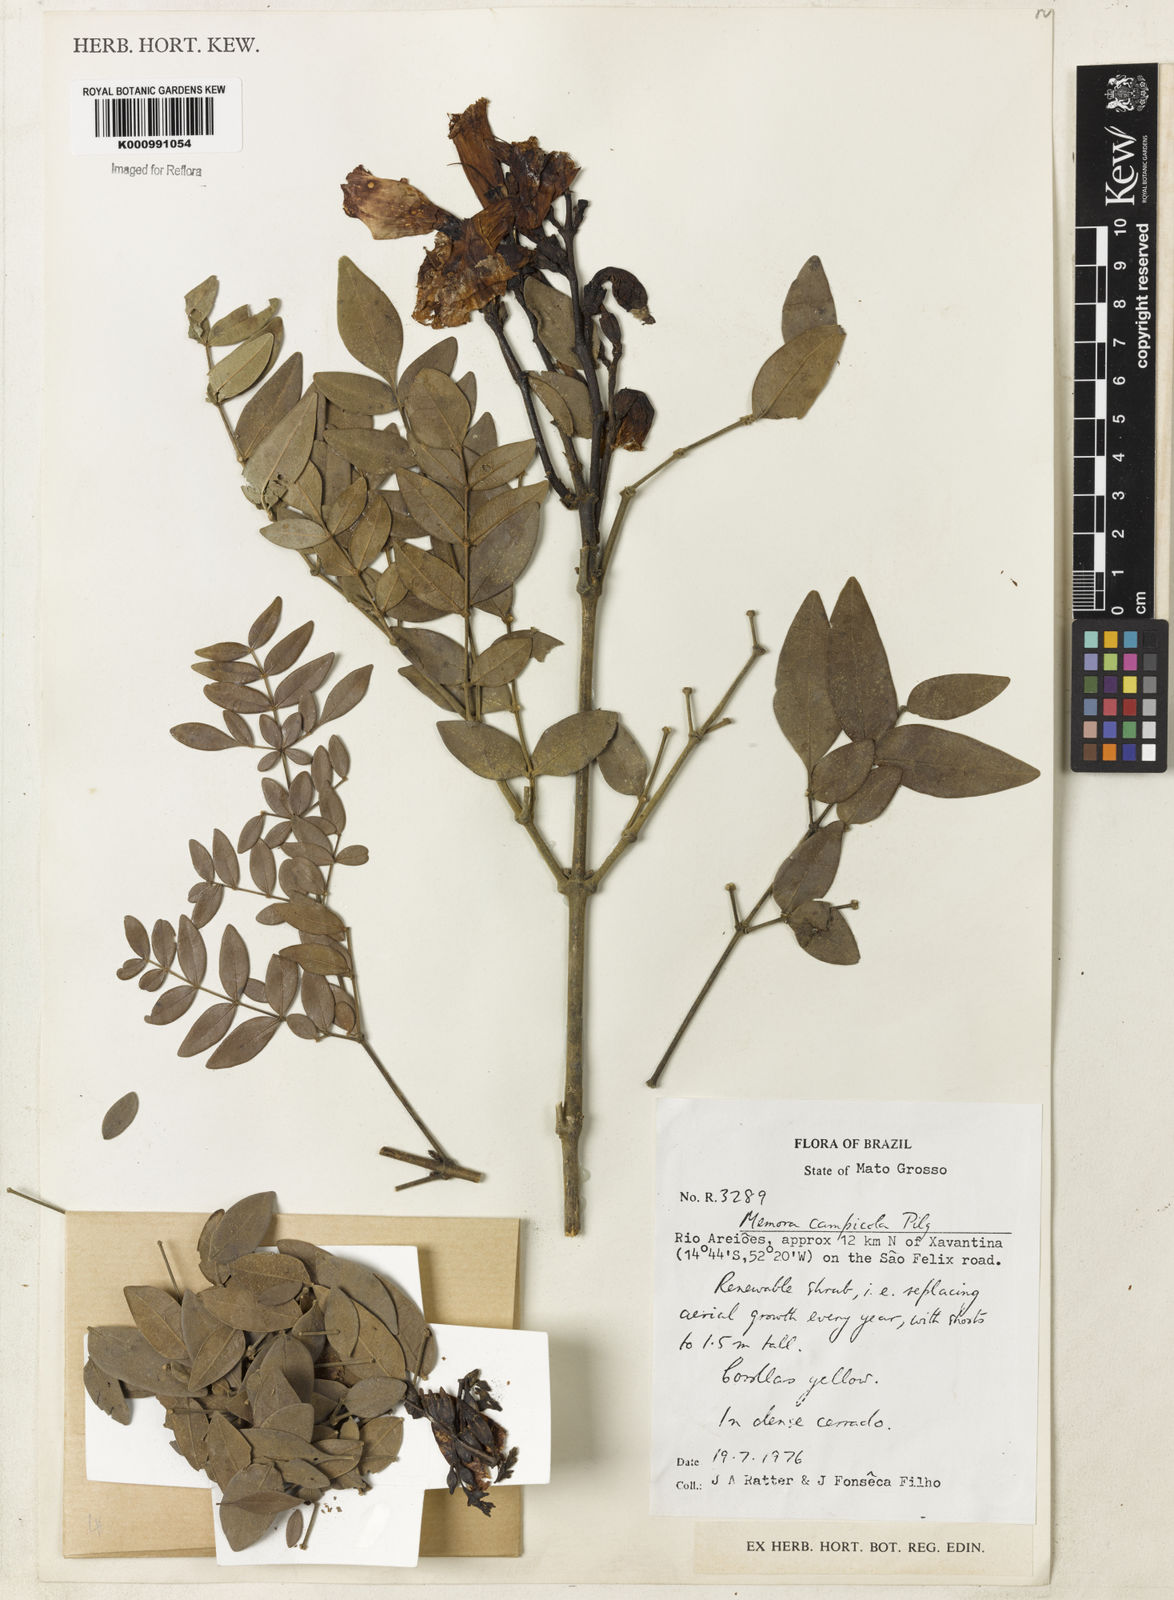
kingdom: Plantae
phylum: Tracheophyta
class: Magnoliopsida
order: Lamiales
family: Bignoniaceae
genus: Adenocalymma
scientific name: Adenocalymma campicola
